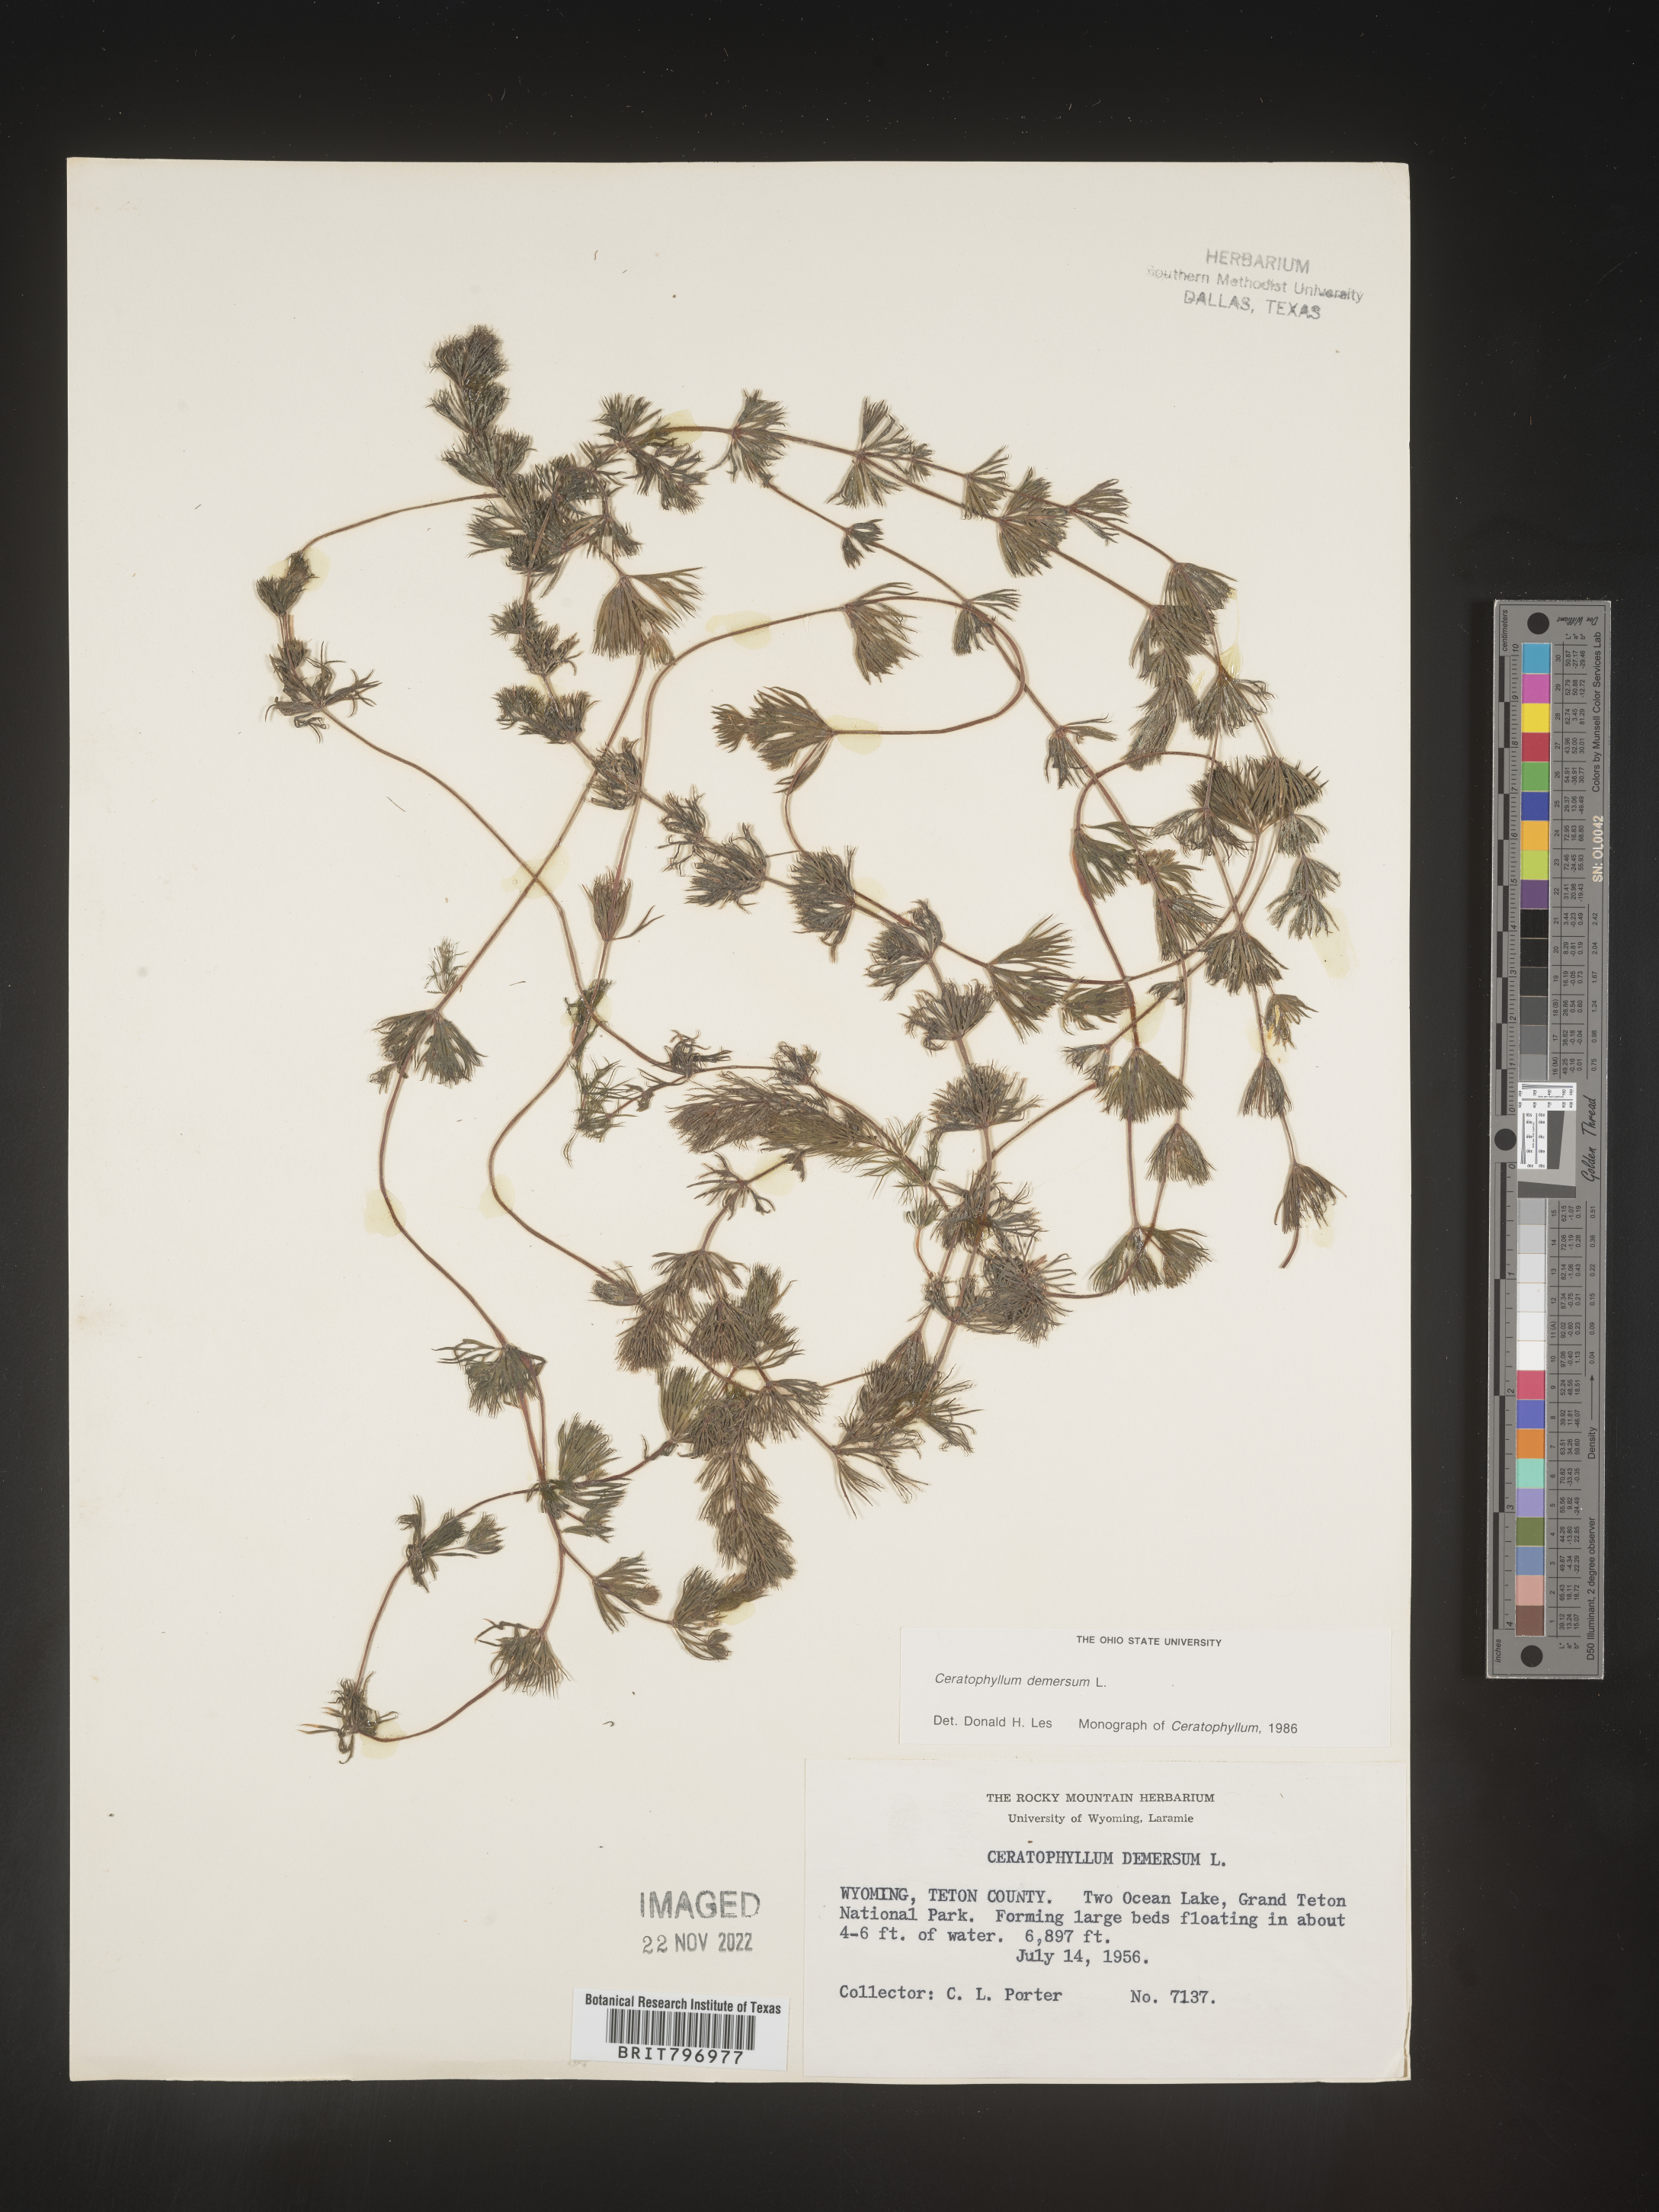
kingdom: Plantae
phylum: Tracheophyta
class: Magnoliopsida
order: Ceratophyllales
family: Ceratophyllaceae
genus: Ceratophyllum
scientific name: Ceratophyllum demersum
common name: Rigid hornwort
